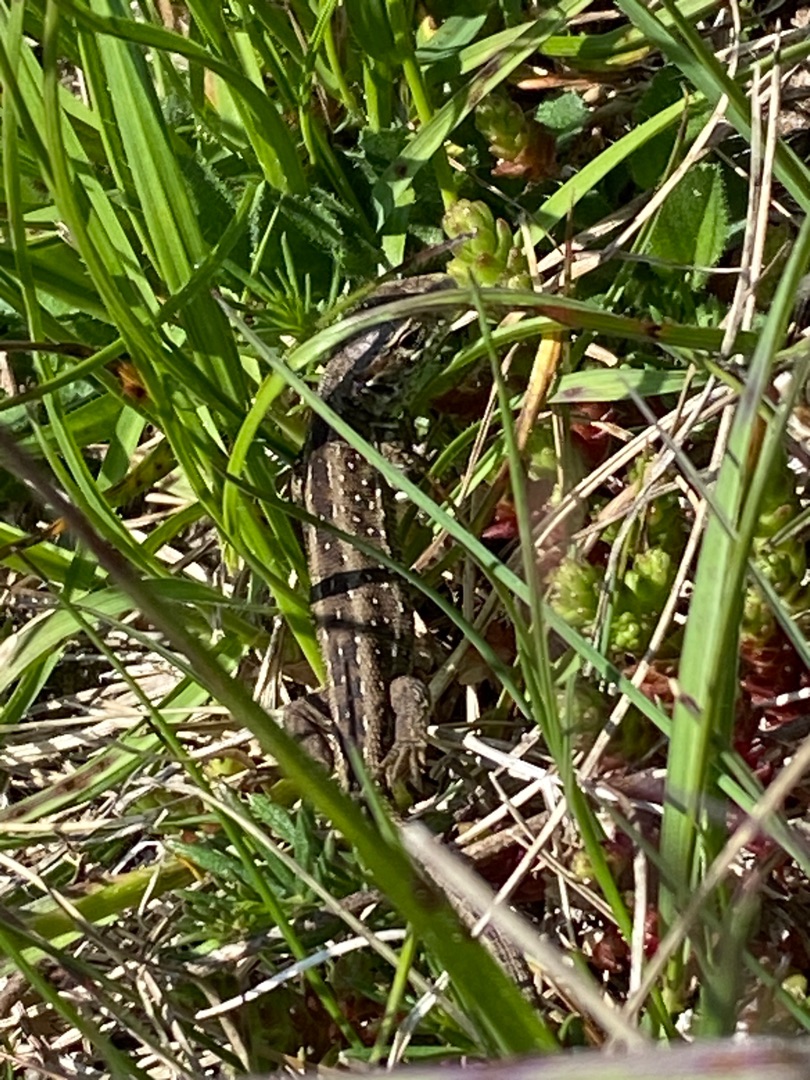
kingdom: Animalia
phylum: Chordata
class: Squamata
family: Lacertidae
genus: Lacerta
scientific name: Lacerta agilis
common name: Markfirben
